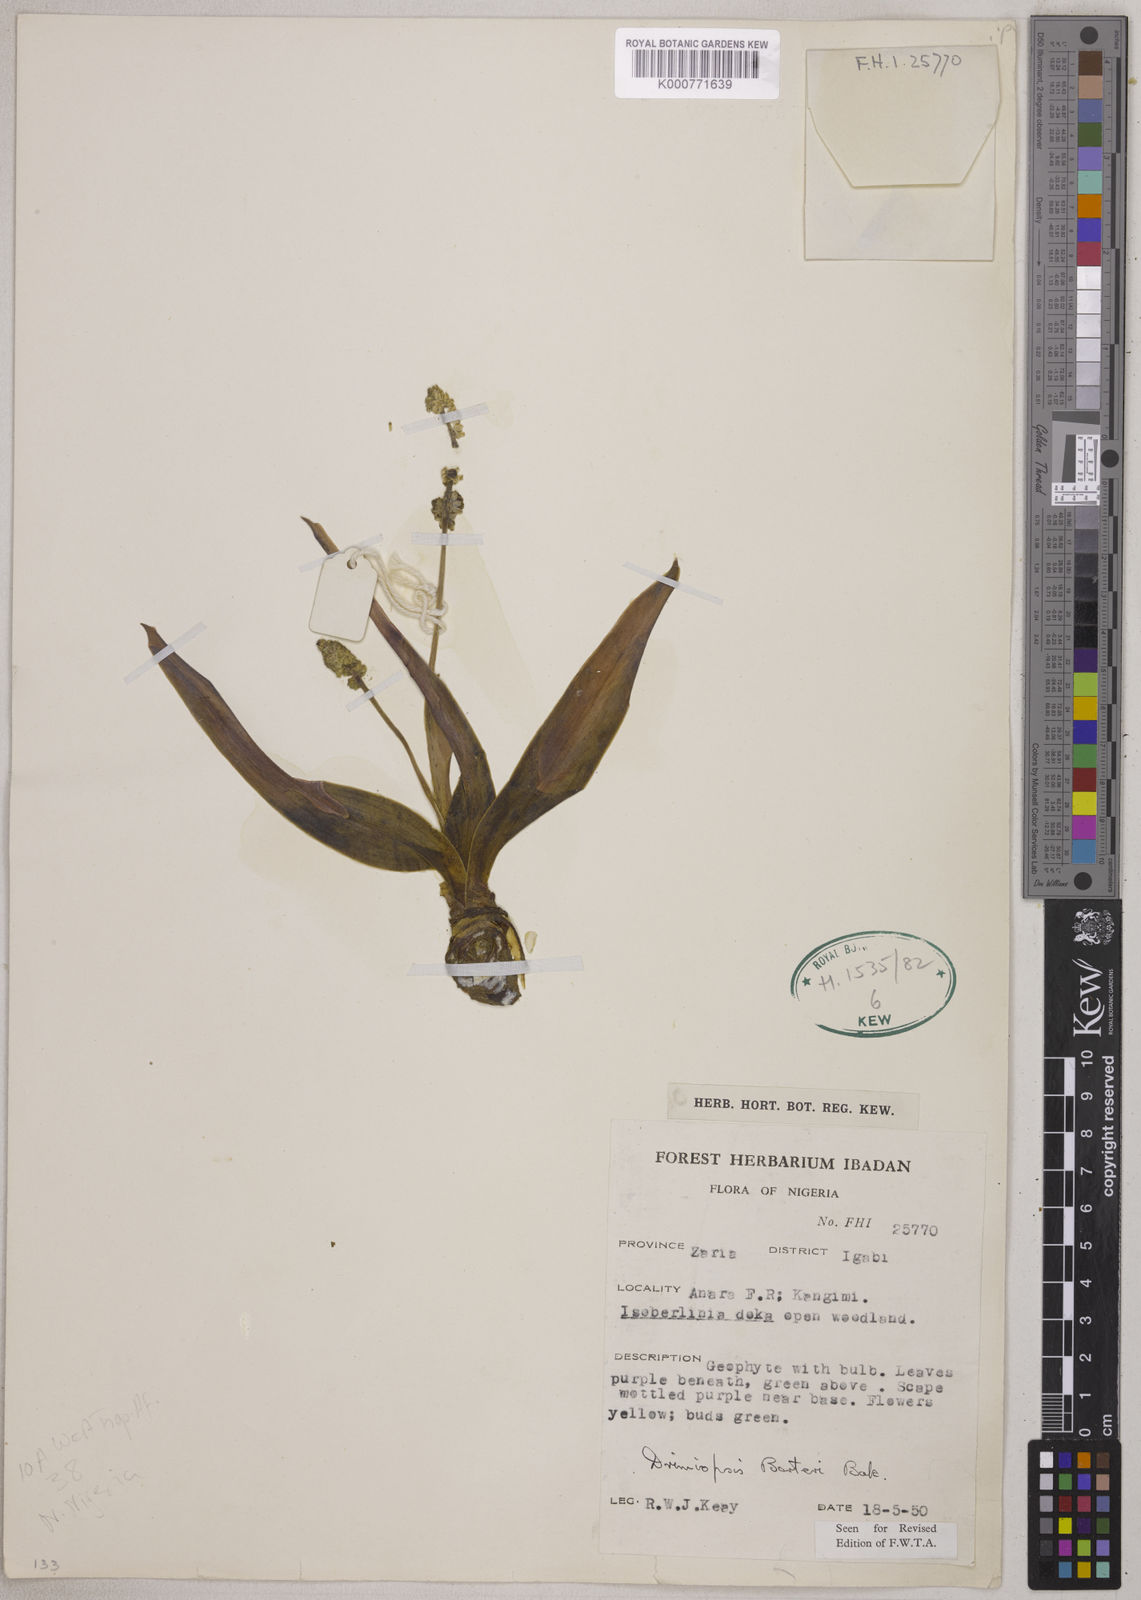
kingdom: Plantae
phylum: Tracheophyta
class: Liliopsida
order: Asparagales
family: Asparagaceae
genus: Drimiopsis
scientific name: Drimiopsis barteri
